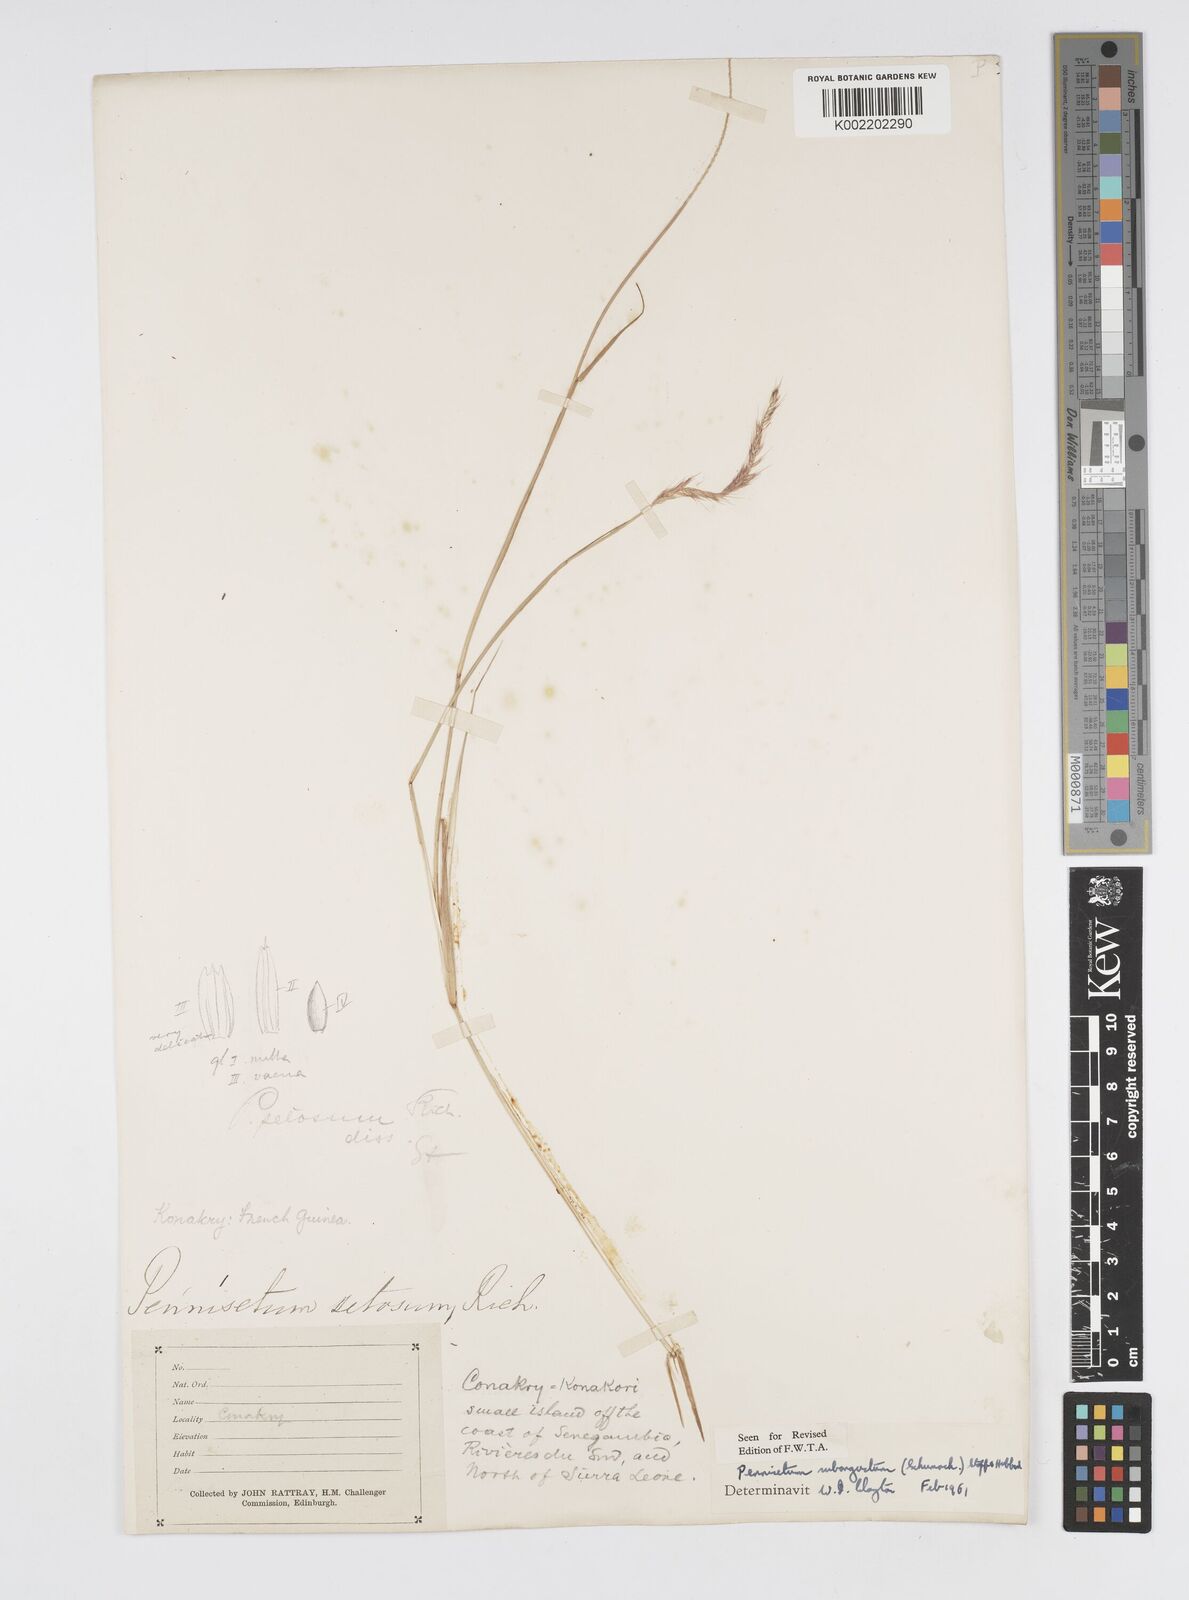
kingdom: Plantae
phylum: Tracheophyta
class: Liliopsida
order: Poales
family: Poaceae
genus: Setaria
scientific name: Setaria parviflora
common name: Knotroot bristle-grass
